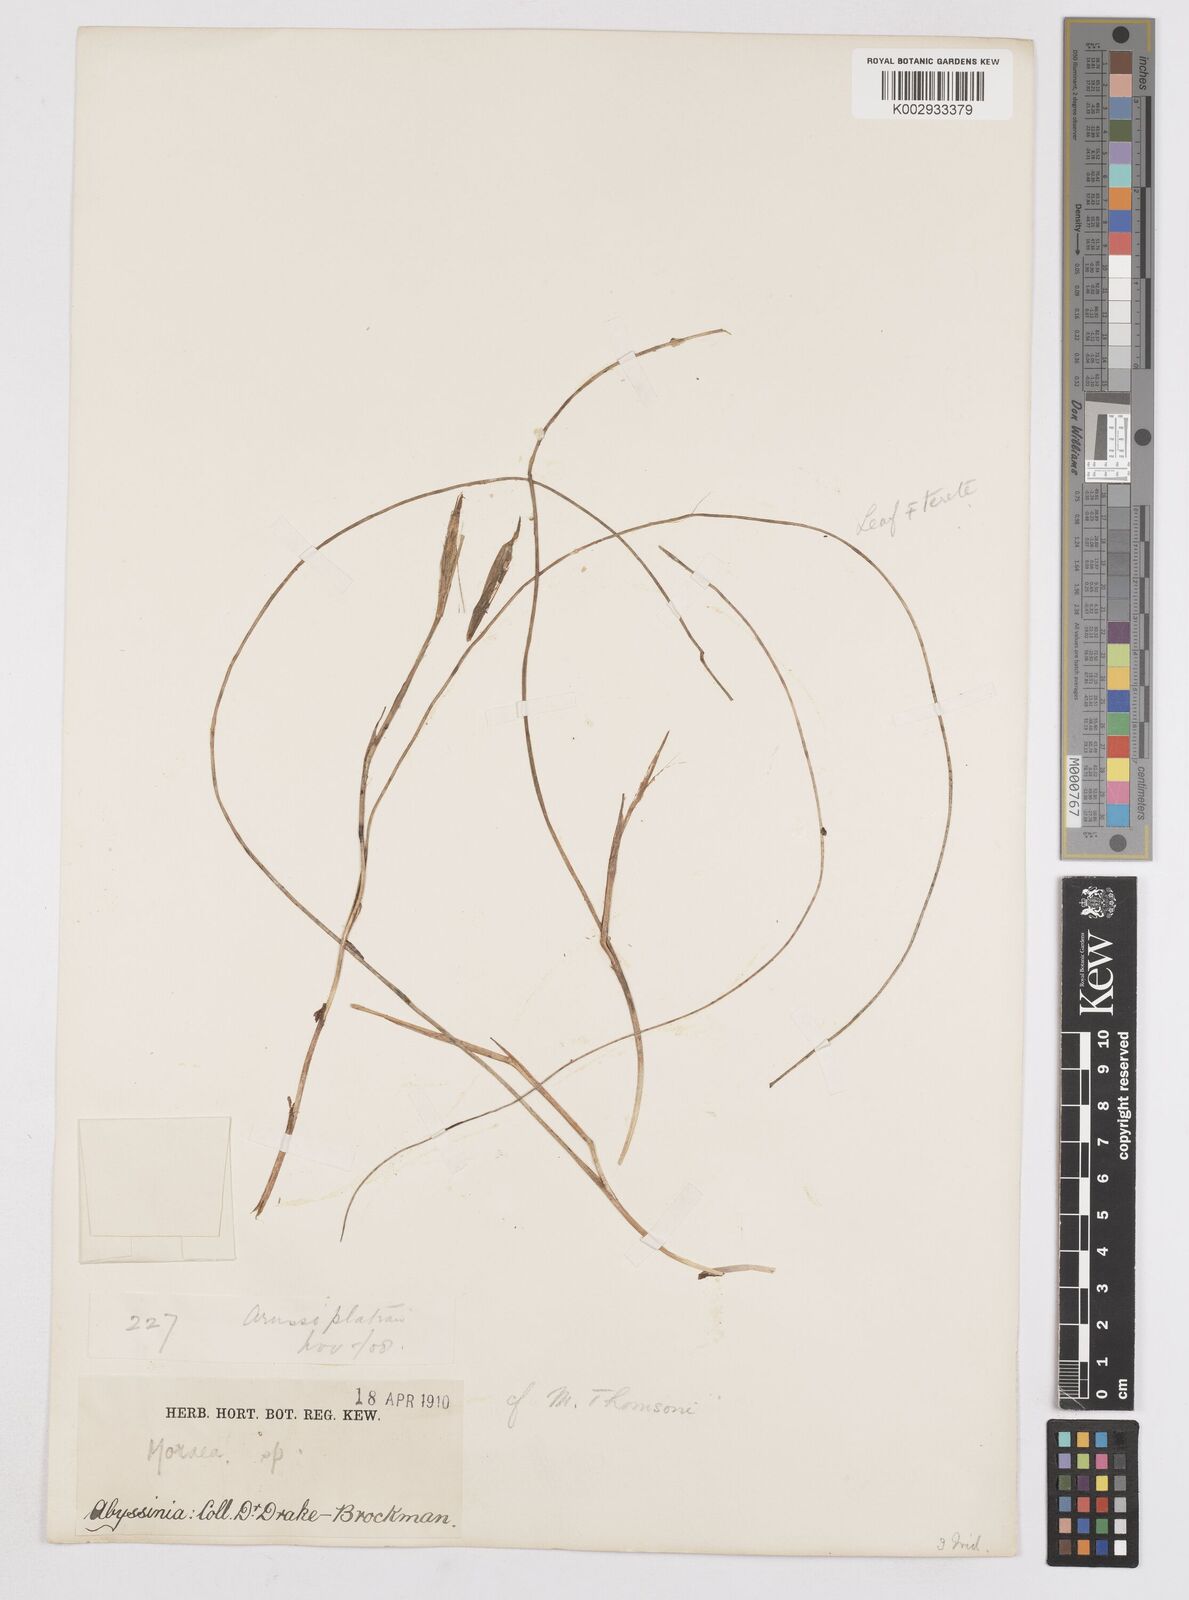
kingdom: Plantae
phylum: Tracheophyta
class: Liliopsida
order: Asparagales
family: Iridaceae
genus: Moraea
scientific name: Moraea thomsonii
